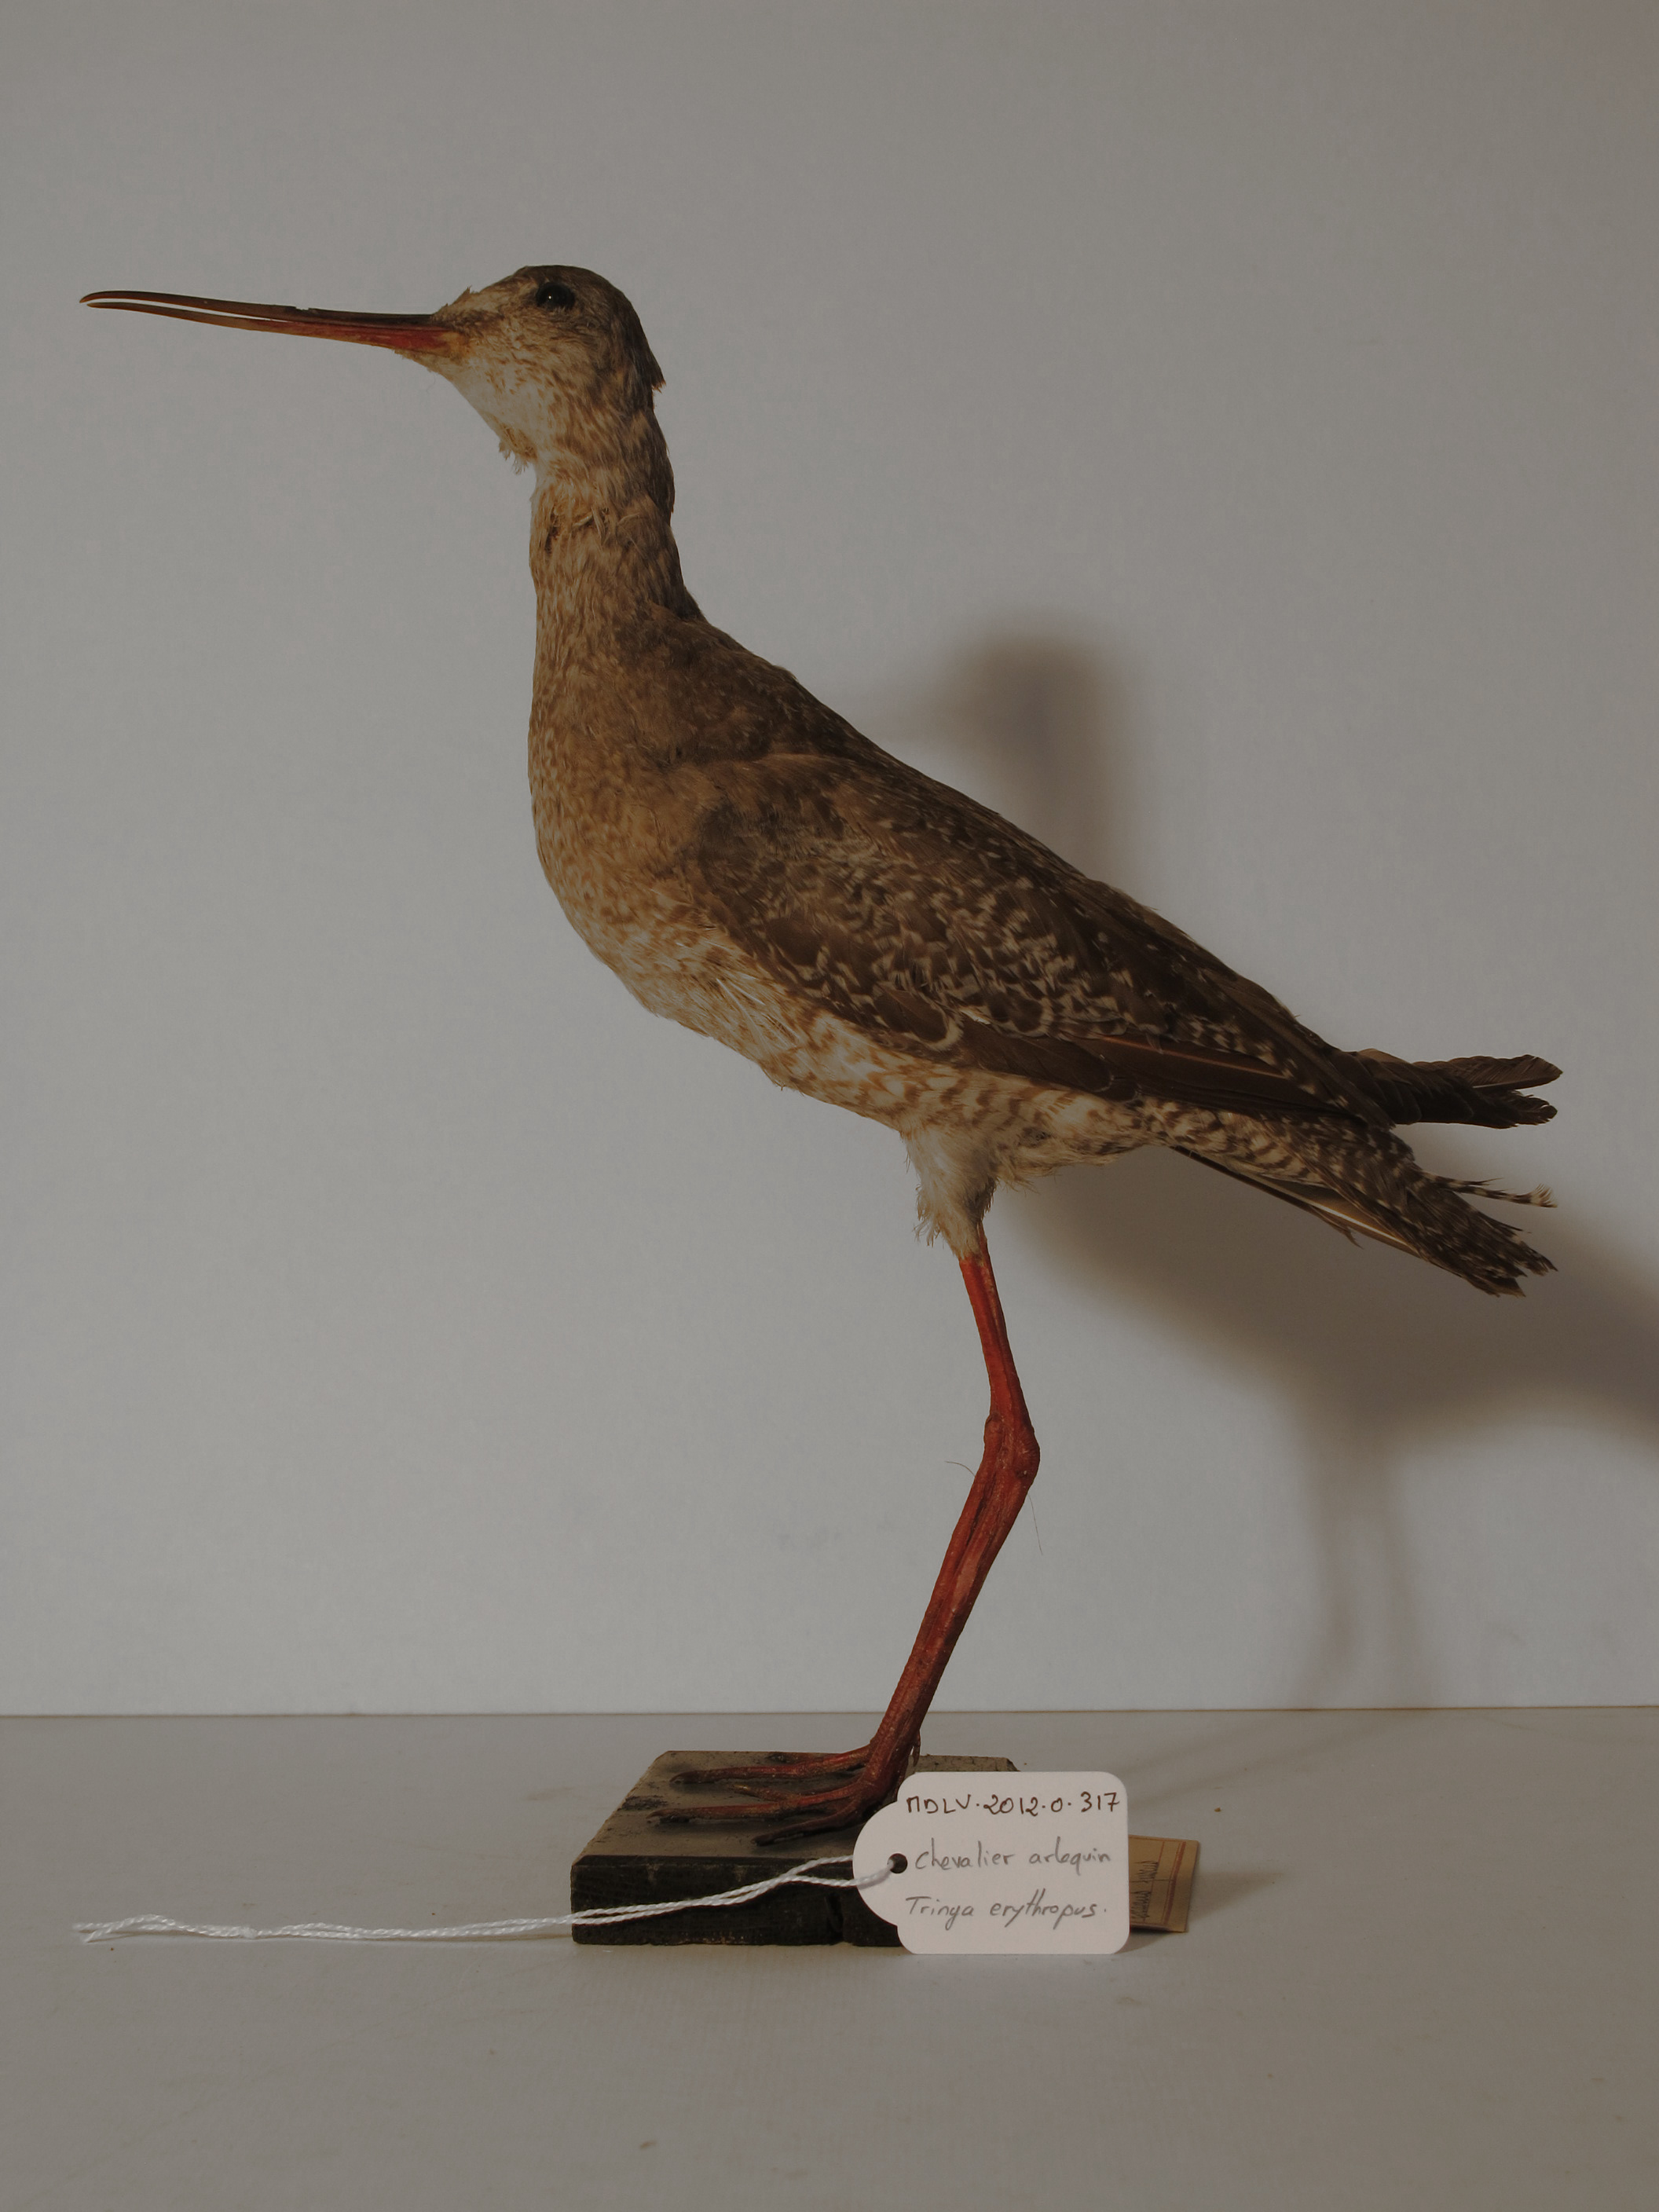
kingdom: Animalia
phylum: Chordata
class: Aves
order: Charadriiformes
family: Scolopacidae
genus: Tringa
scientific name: Tringa erythropus
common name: Spotted Redshank
